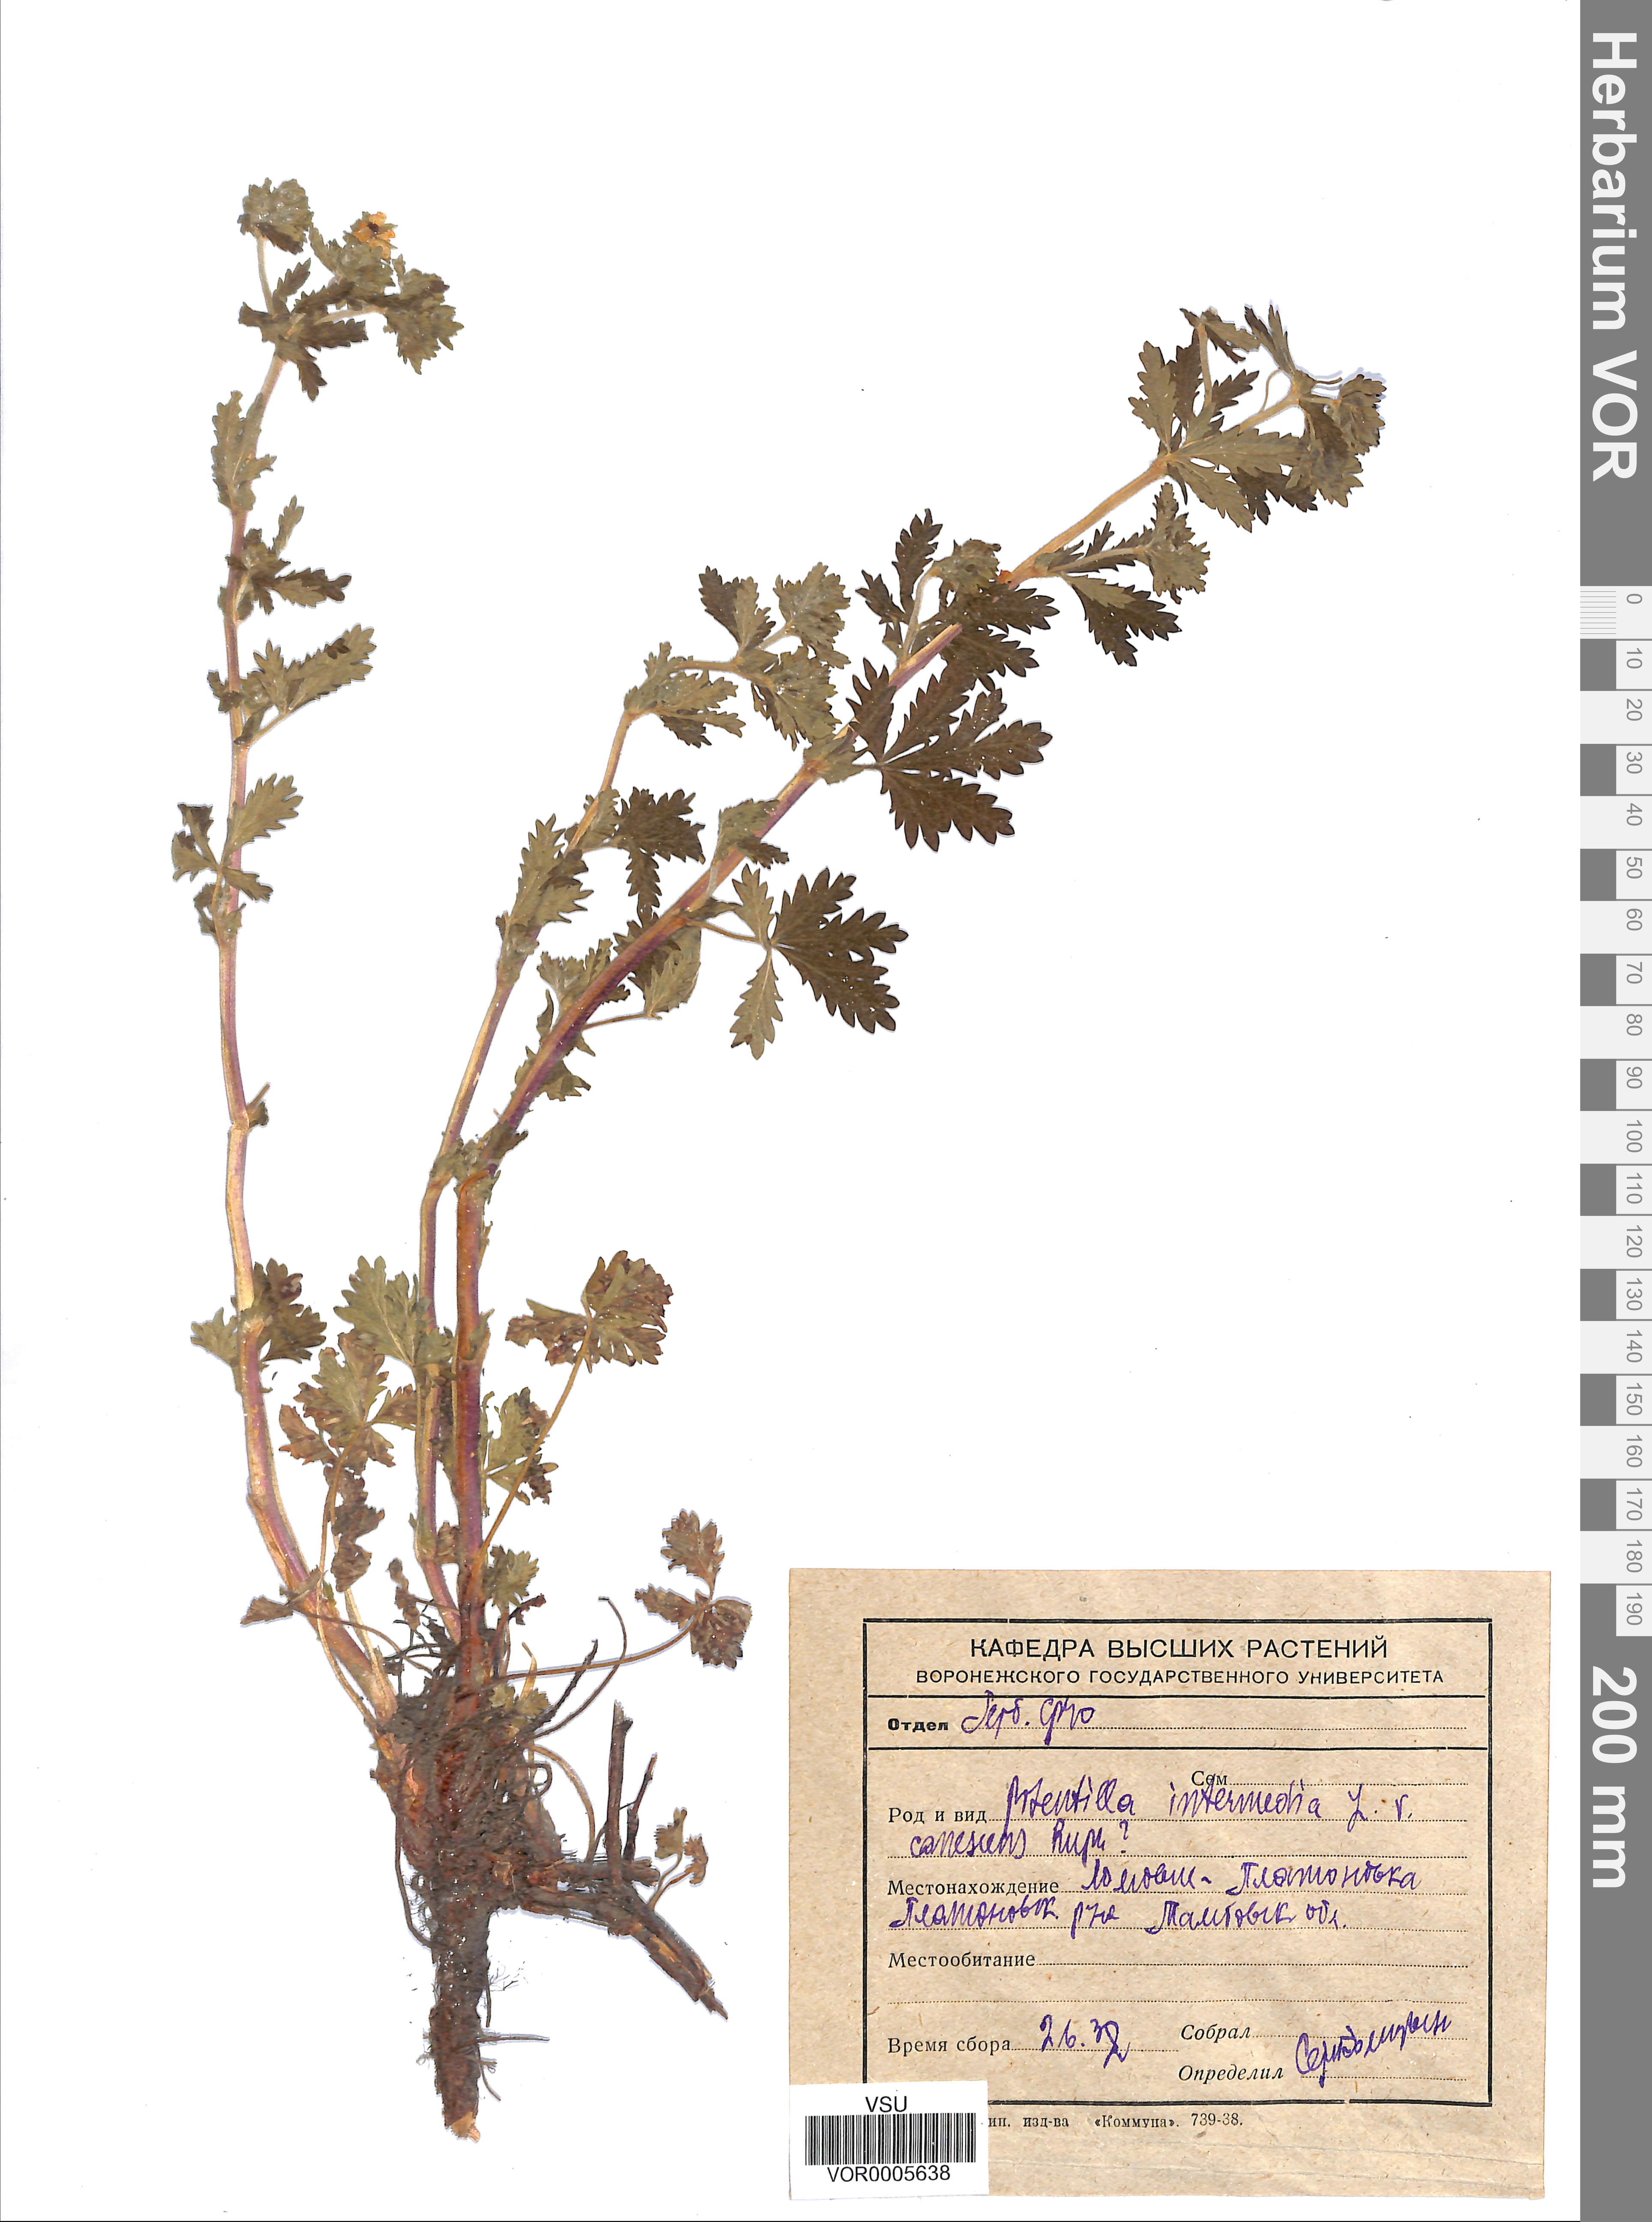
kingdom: Plantae
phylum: Tracheophyta
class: Magnoliopsida
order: Rosales
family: Rosaceae
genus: Potentilla
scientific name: Potentilla norvegica
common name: Ternate-leaved cinquefoil
